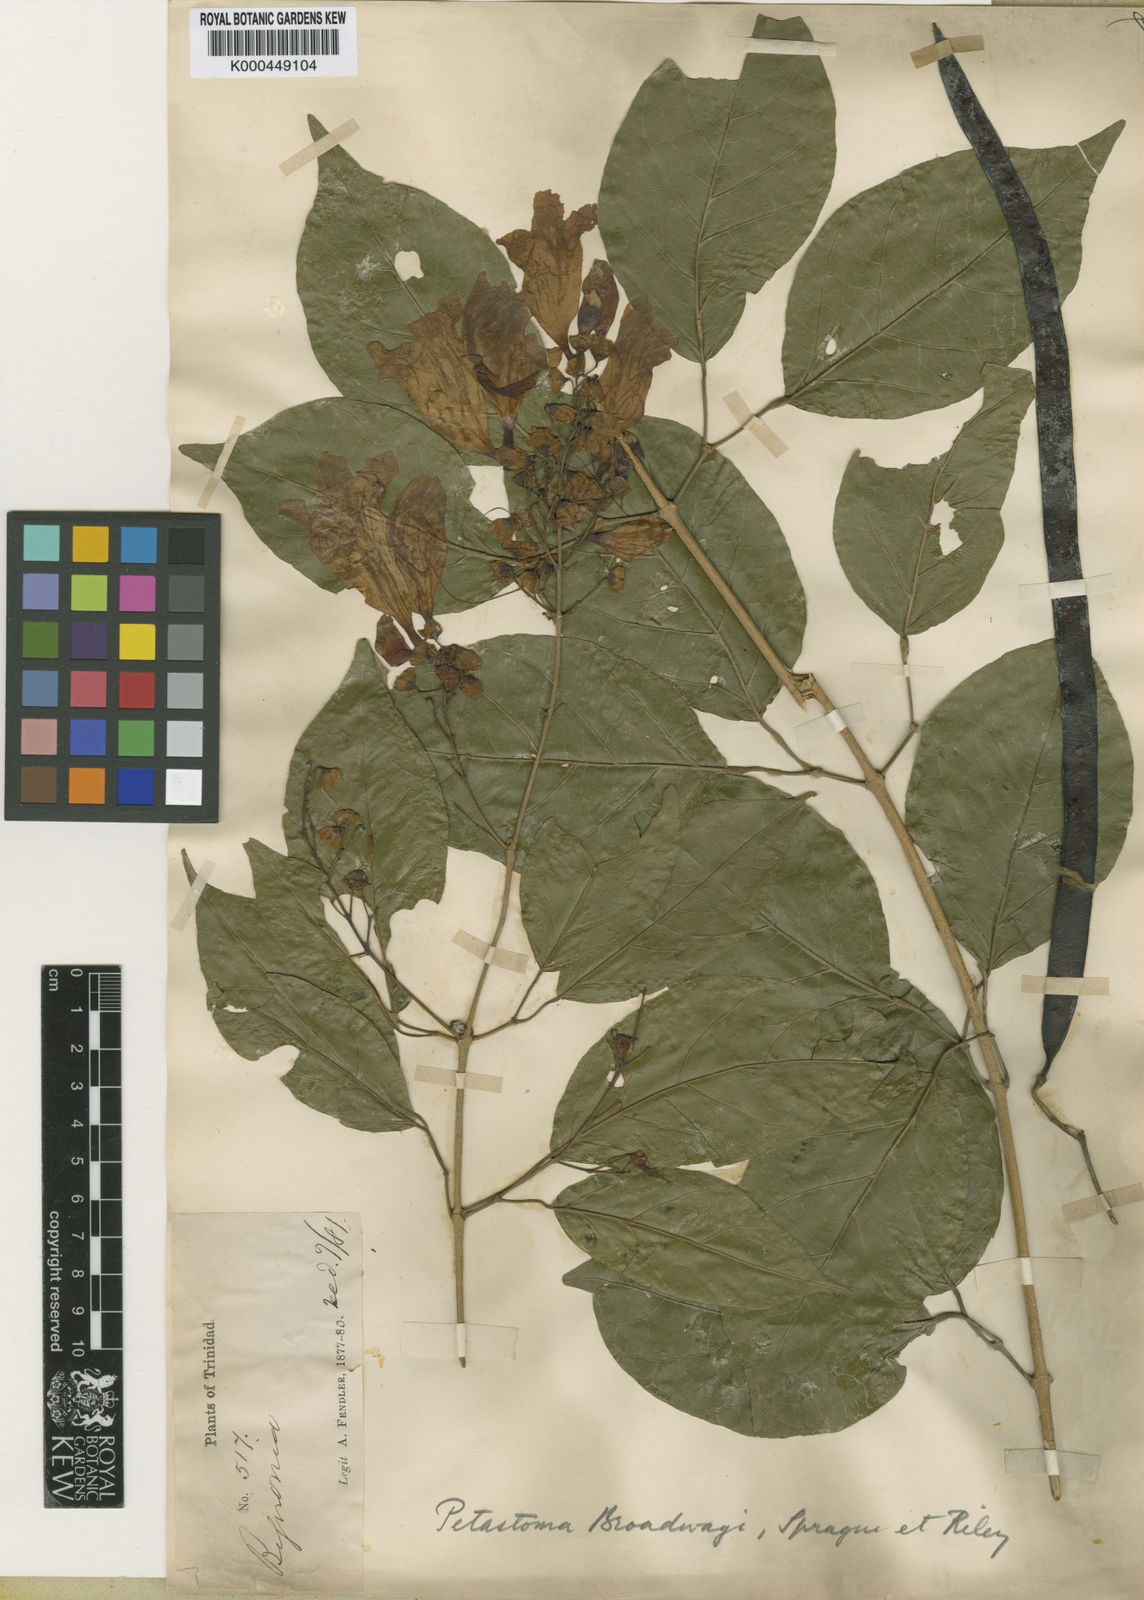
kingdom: Plantae
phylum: Tracheophyta
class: Magnoliopsida
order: Lamiales
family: Bignoniaceae
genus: Fridericia
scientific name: Fridericia patellifera
